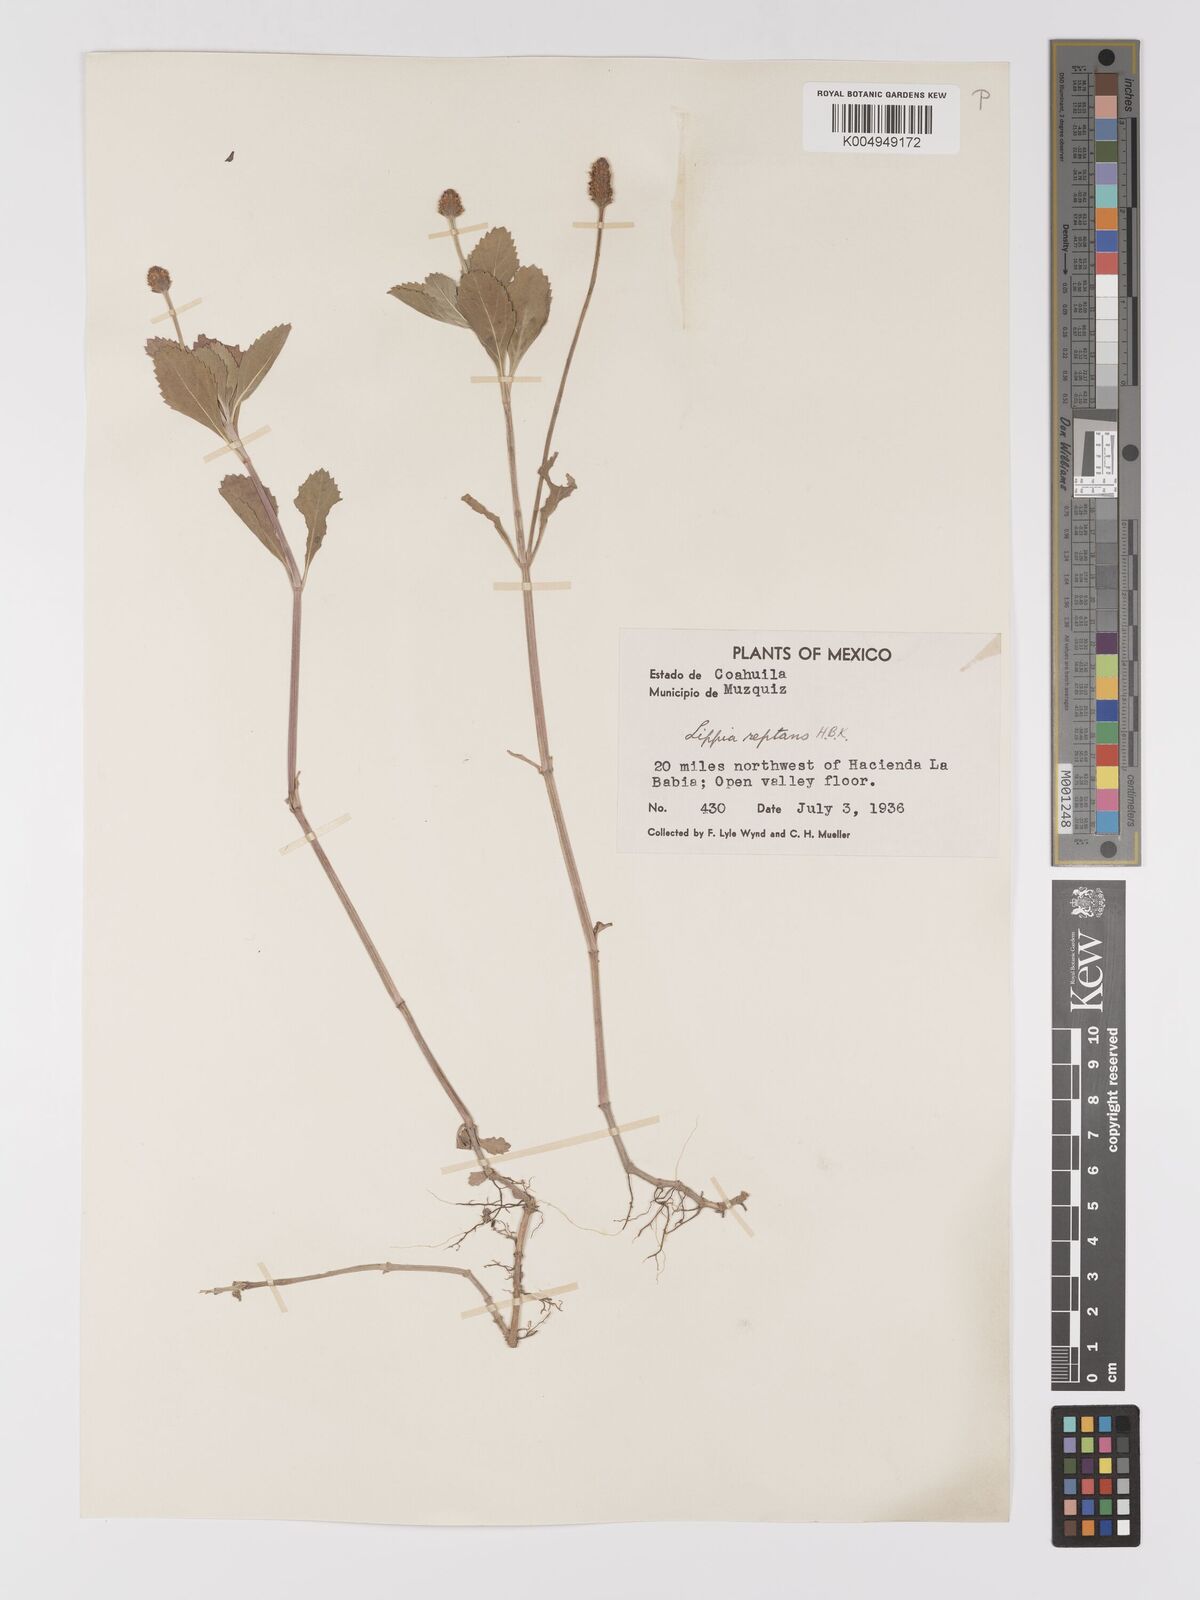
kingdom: Plantae
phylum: Tracheophyta
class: Magnoliopsida
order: Lamiales
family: Verbenaceae
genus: Phyla
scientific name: Phyla nodiflora
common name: Frogfruit
